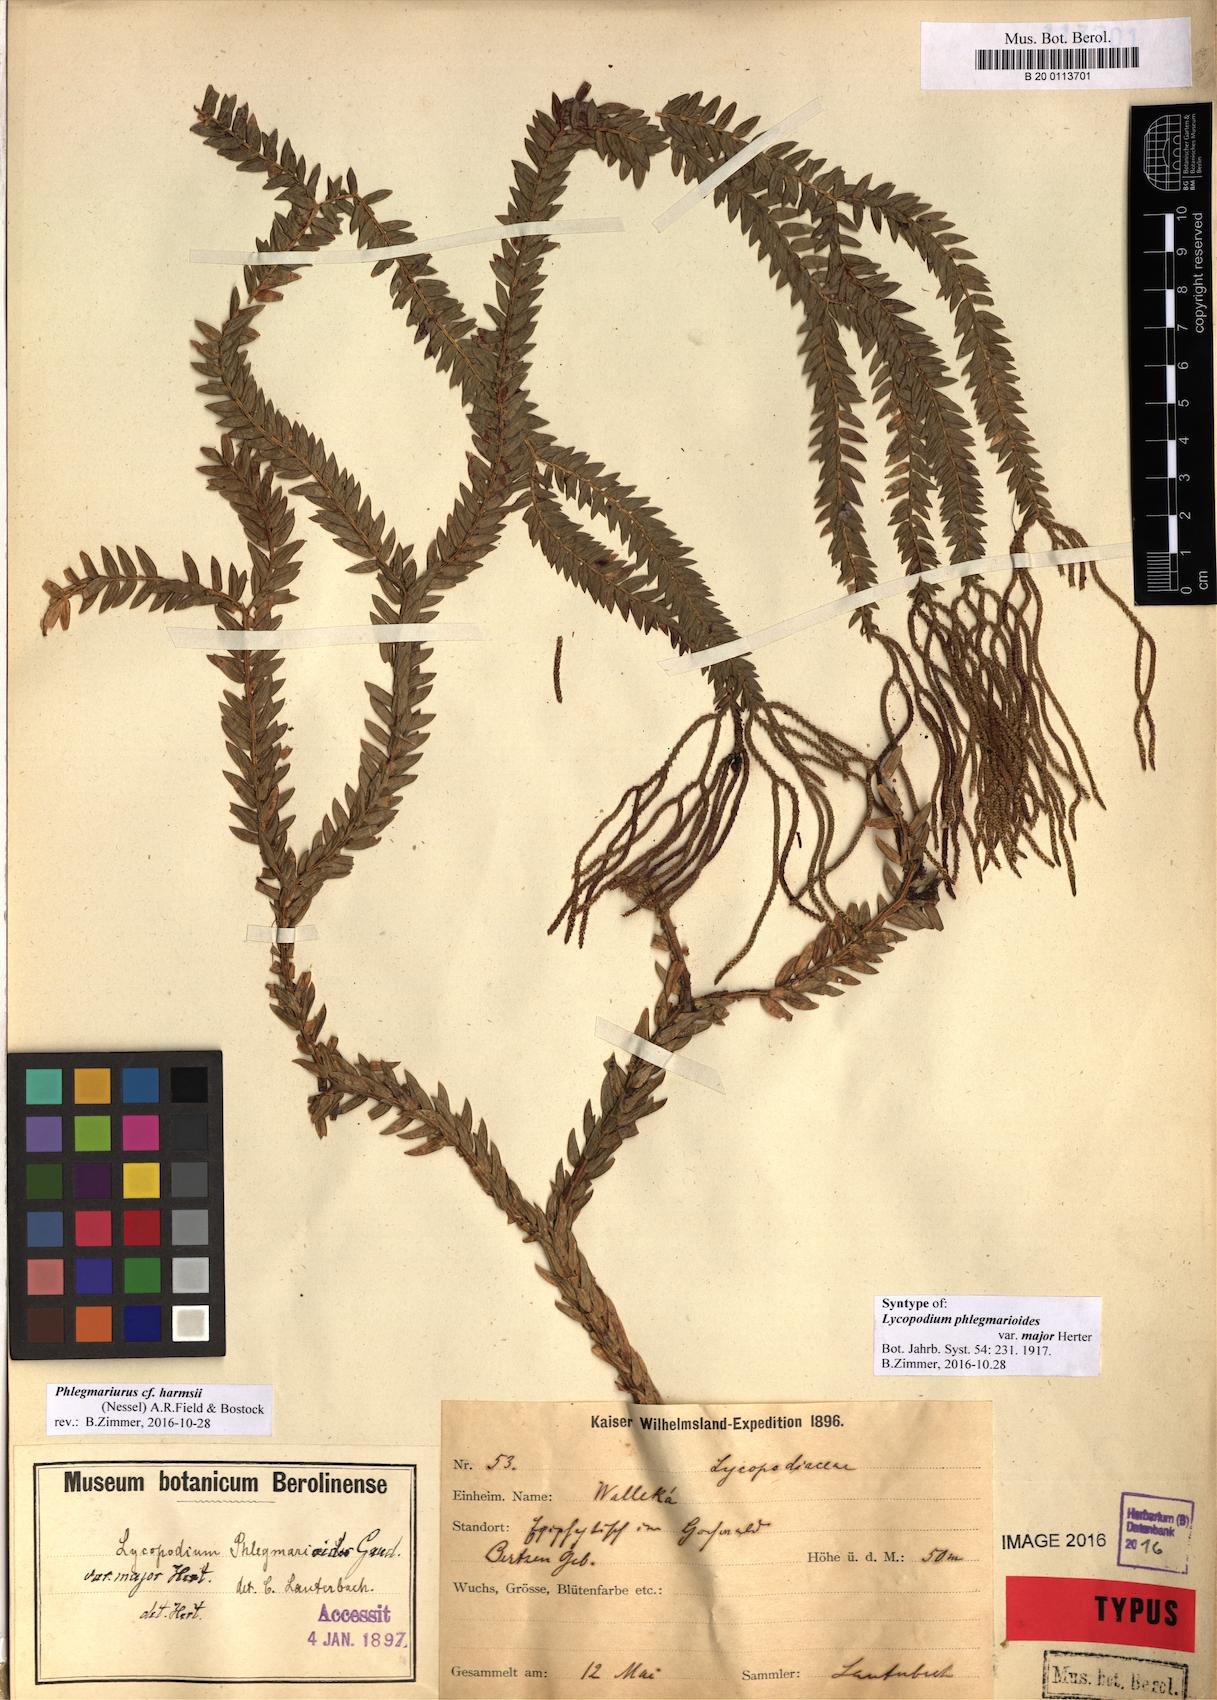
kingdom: Plantae
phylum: Tracheophyta
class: Lycopodiopsida
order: Lycopodiales
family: Lycopodiaceae
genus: Phlegmariurus
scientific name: Phlegmariurus harmsii
